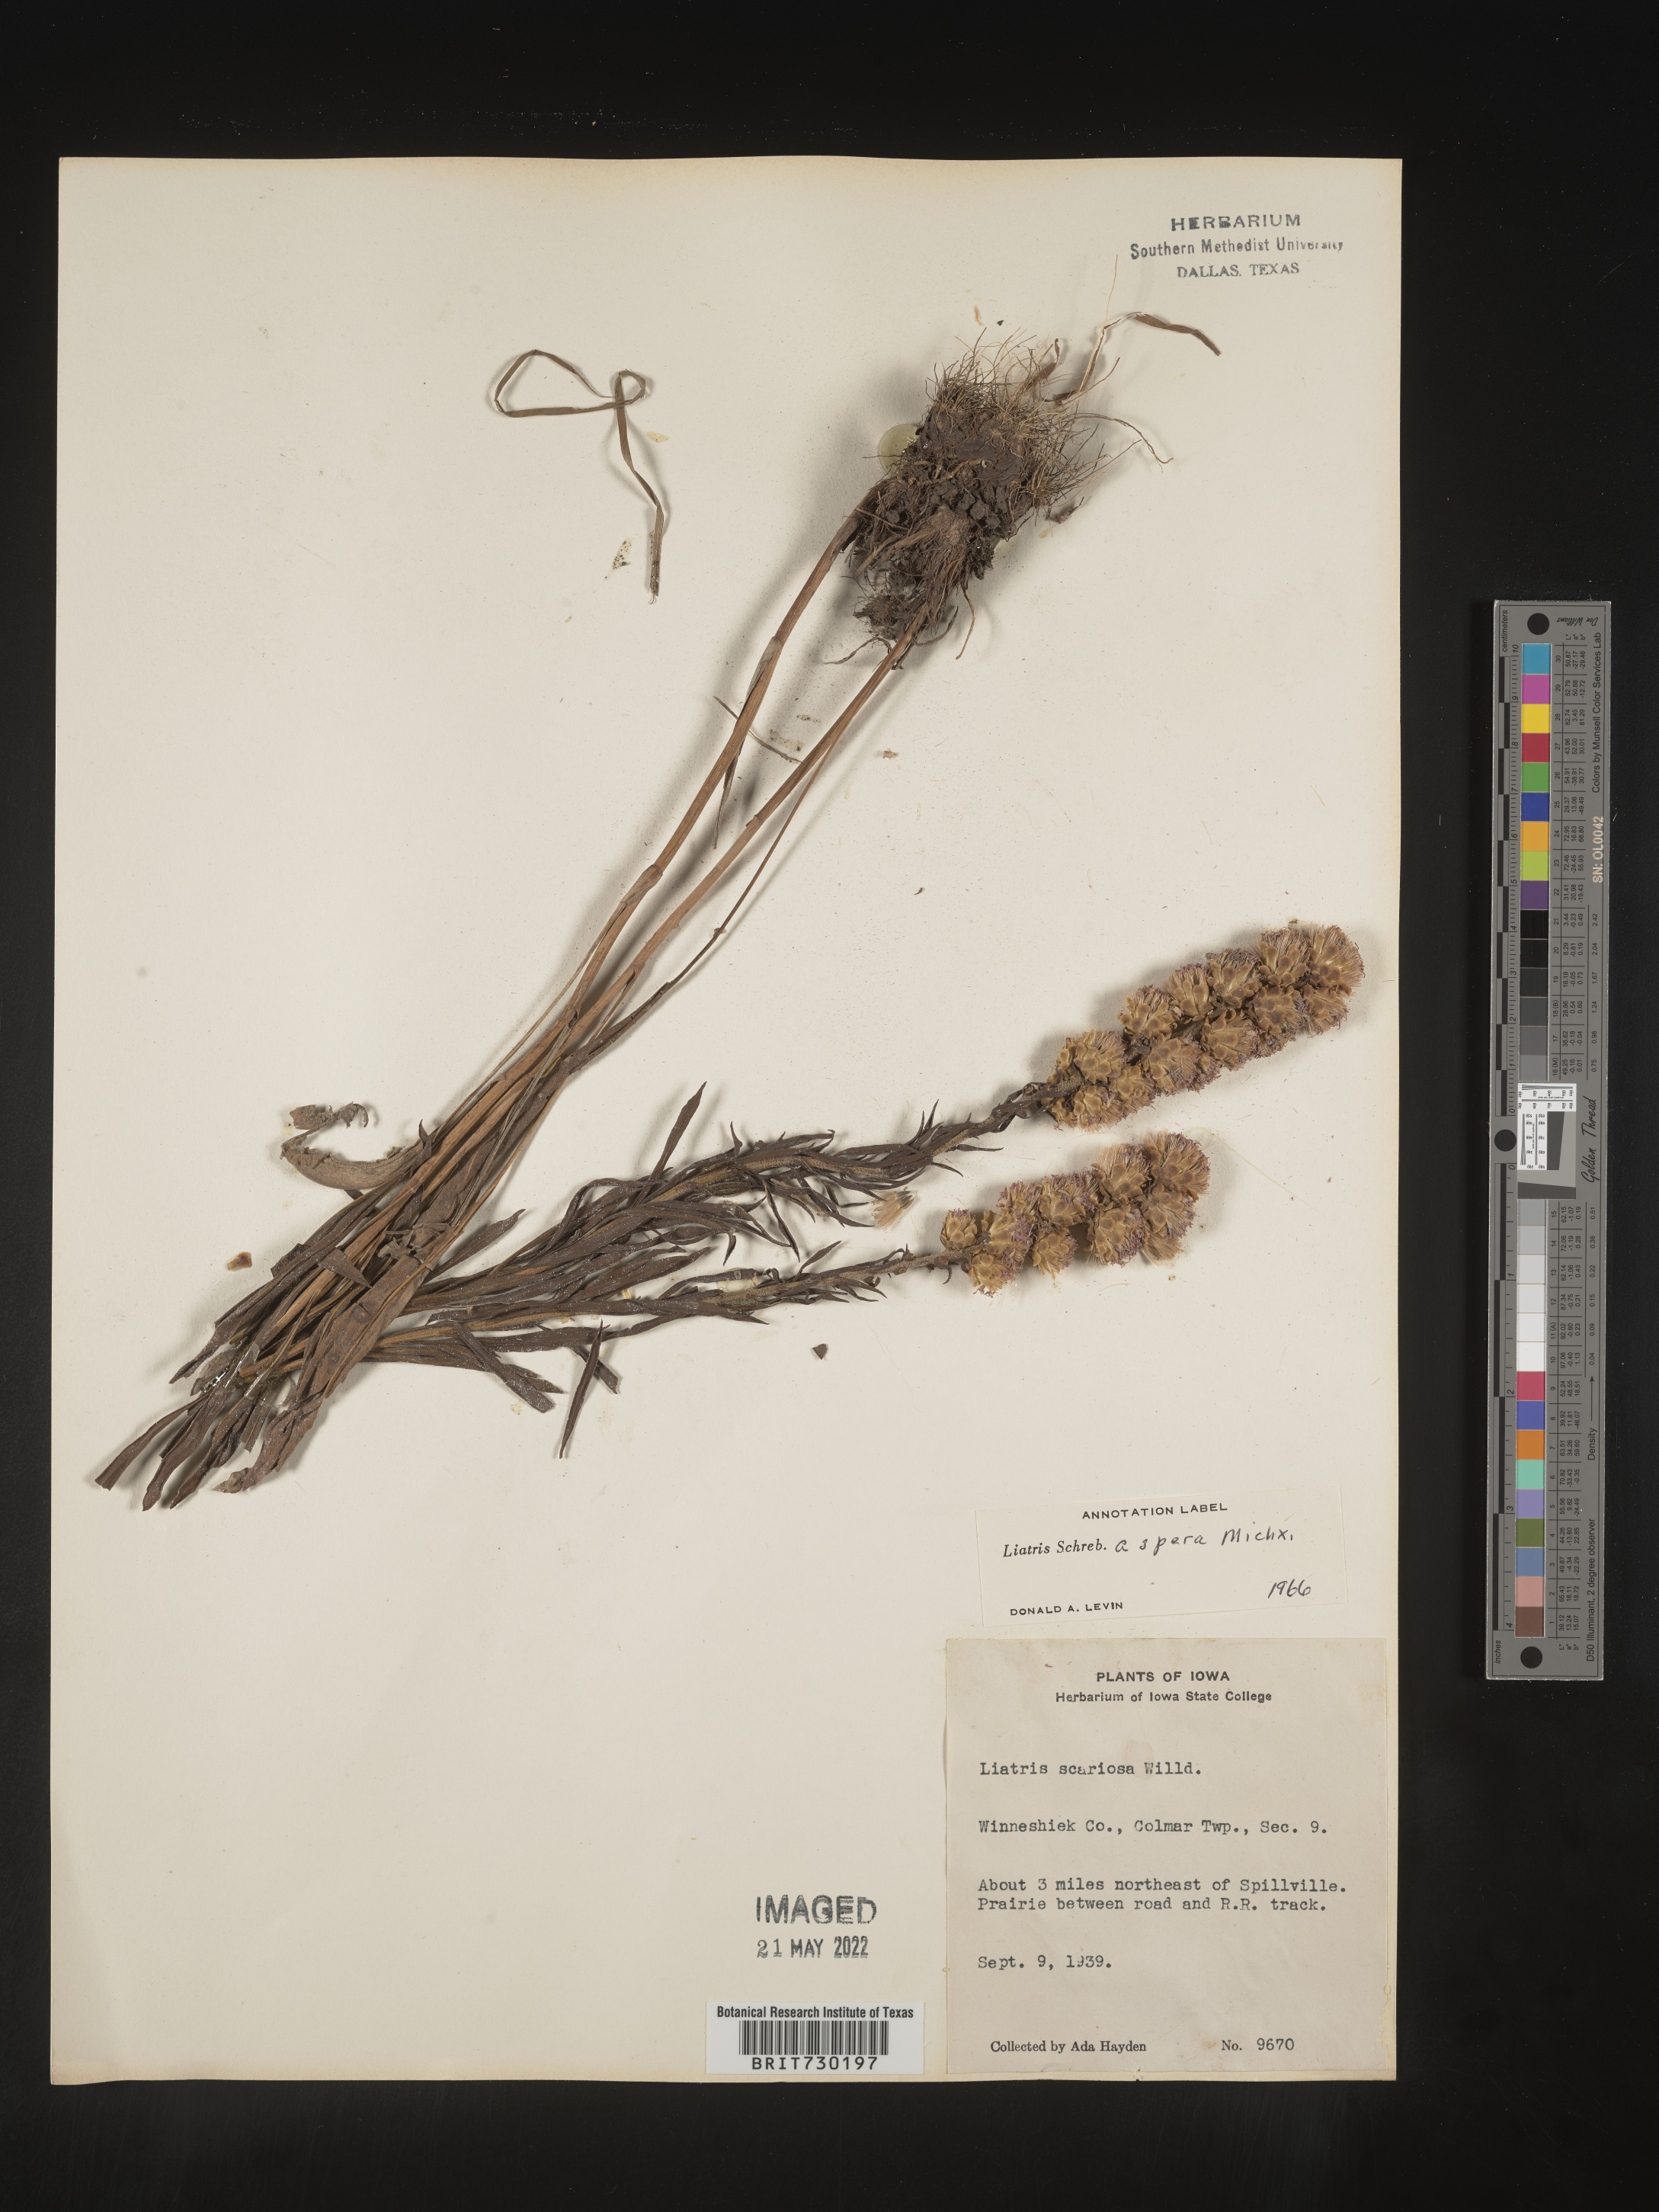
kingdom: Plantae
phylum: Tracheophyta
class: Magnoliopsida
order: Asterales
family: Asteraceae
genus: Liatris
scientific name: Liatris aspera
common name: Lacerate blazing-star
